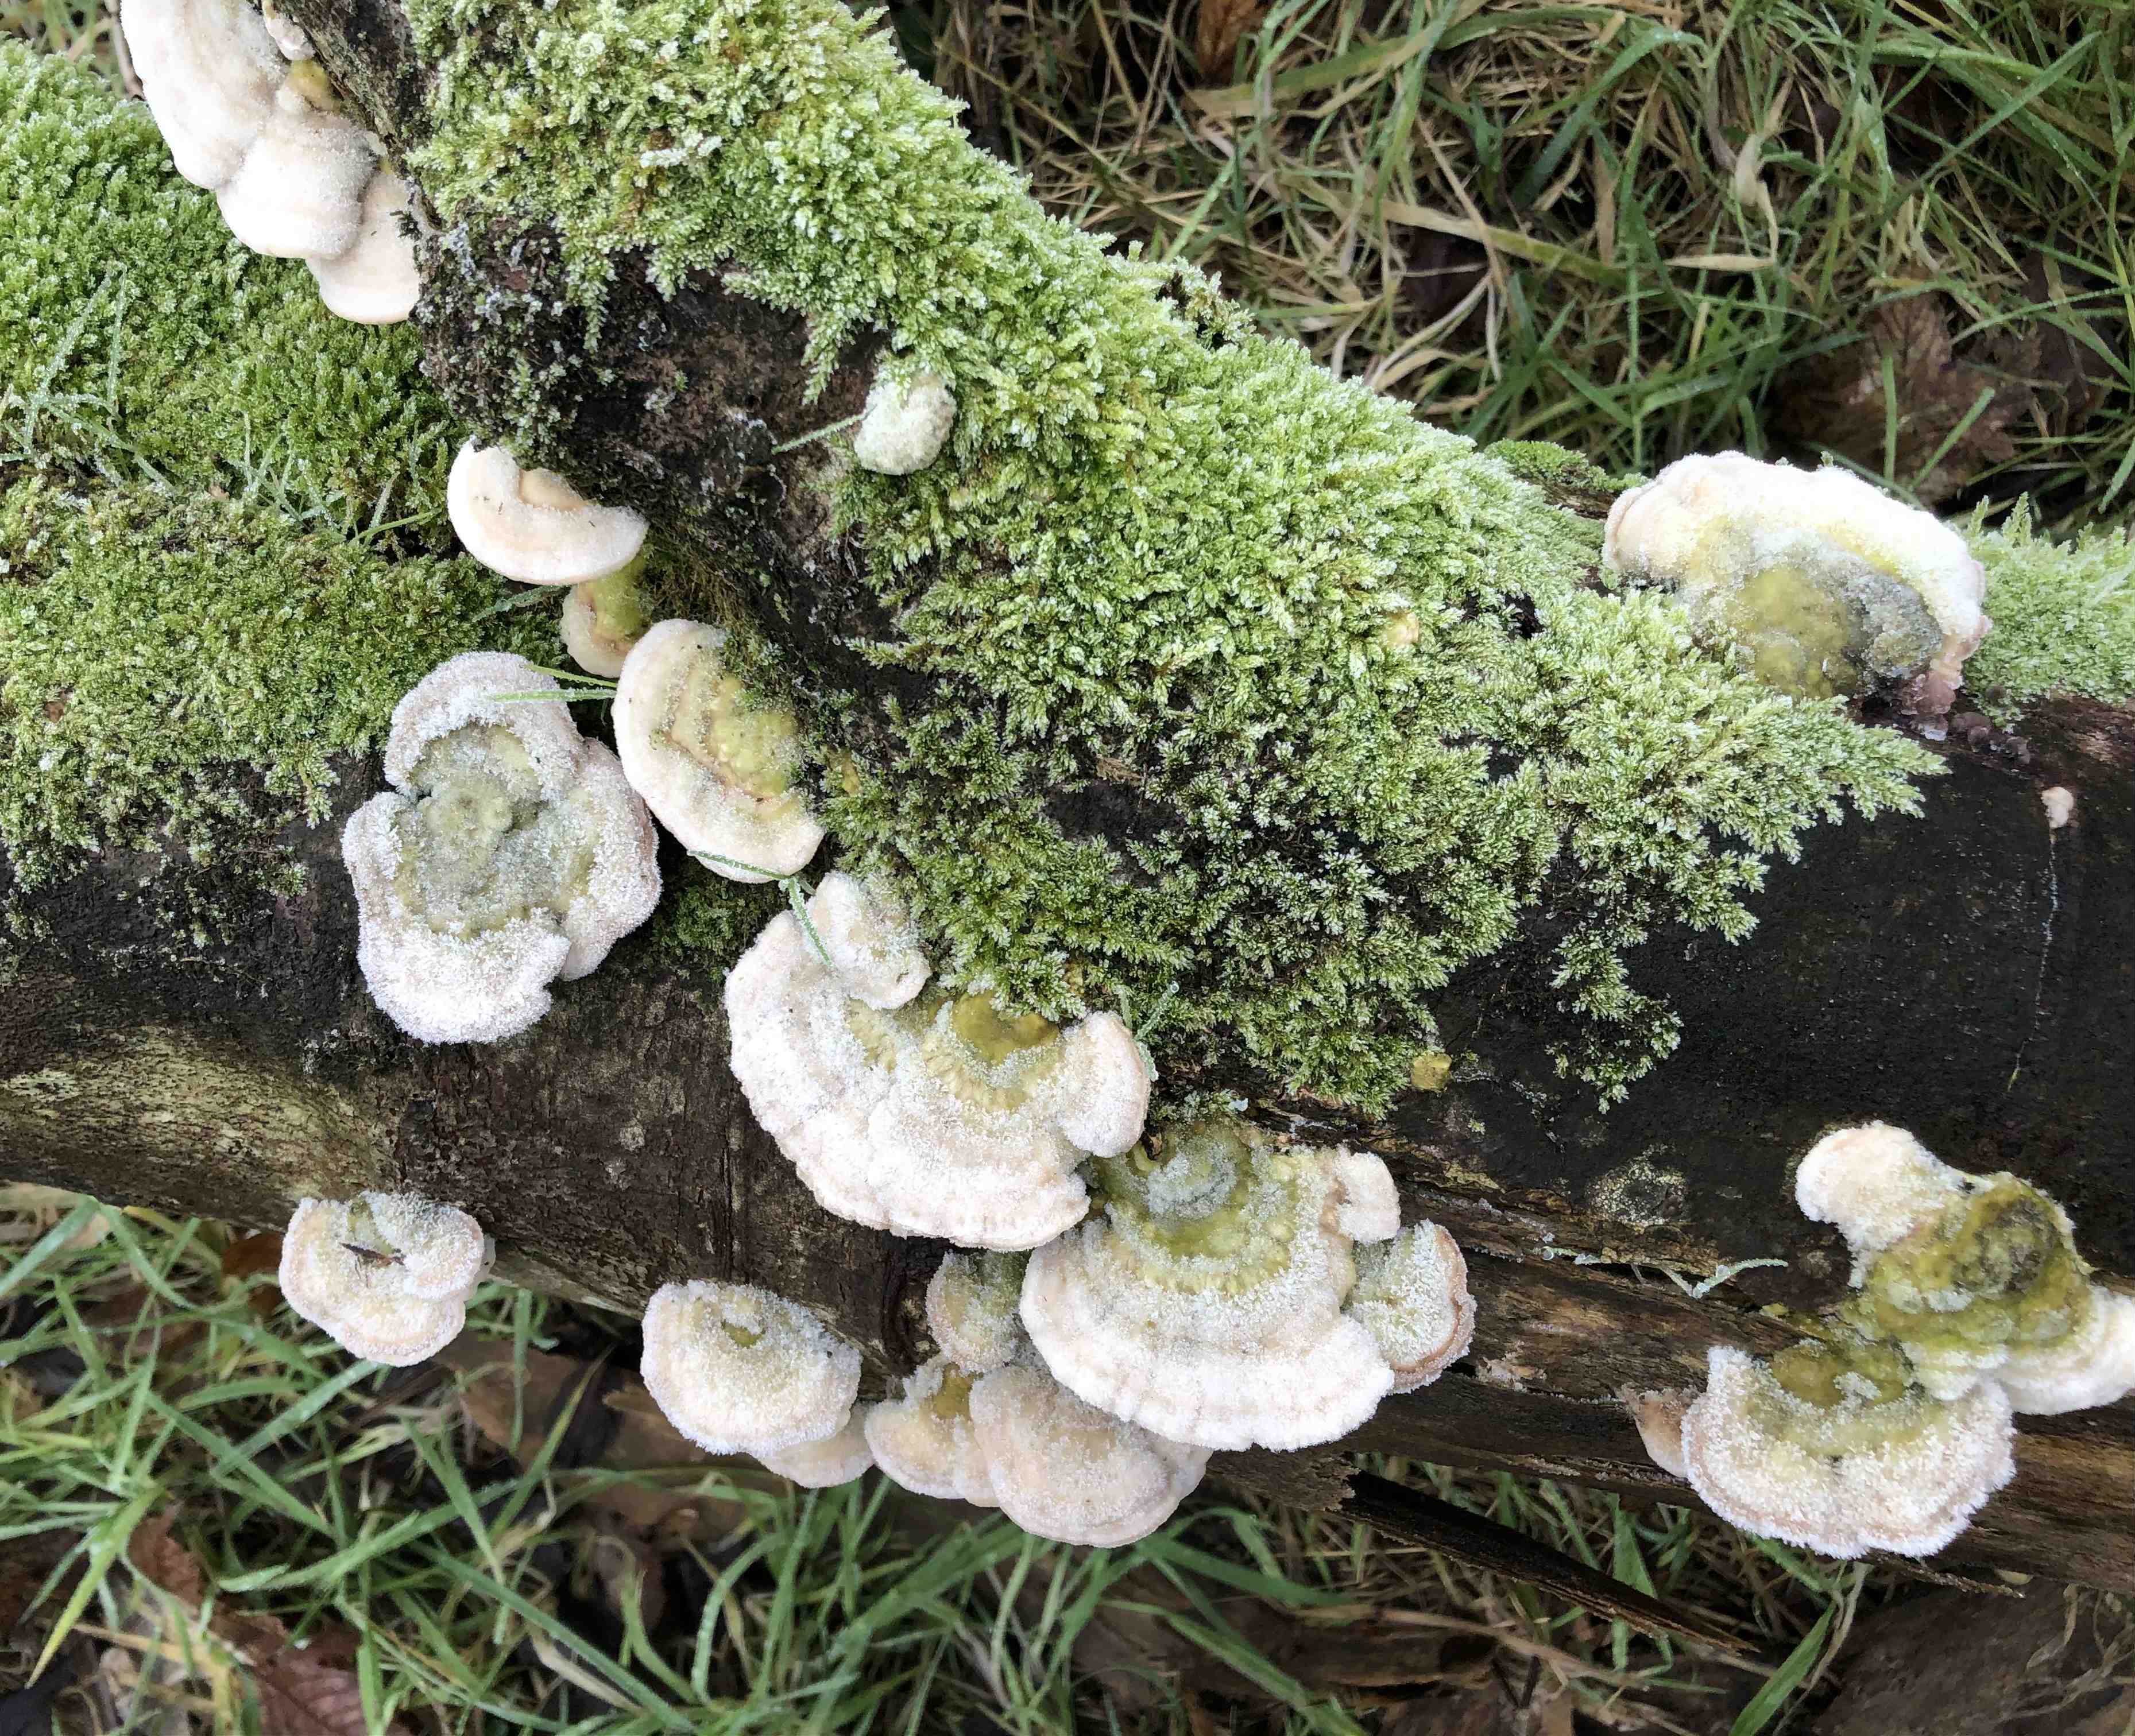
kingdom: Fungi
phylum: Basidiomycota
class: Agaricomycetes
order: Polyporales
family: Polyporaceae
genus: Trametes
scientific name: Trametes hirsuta
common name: håret læderporesvamp
